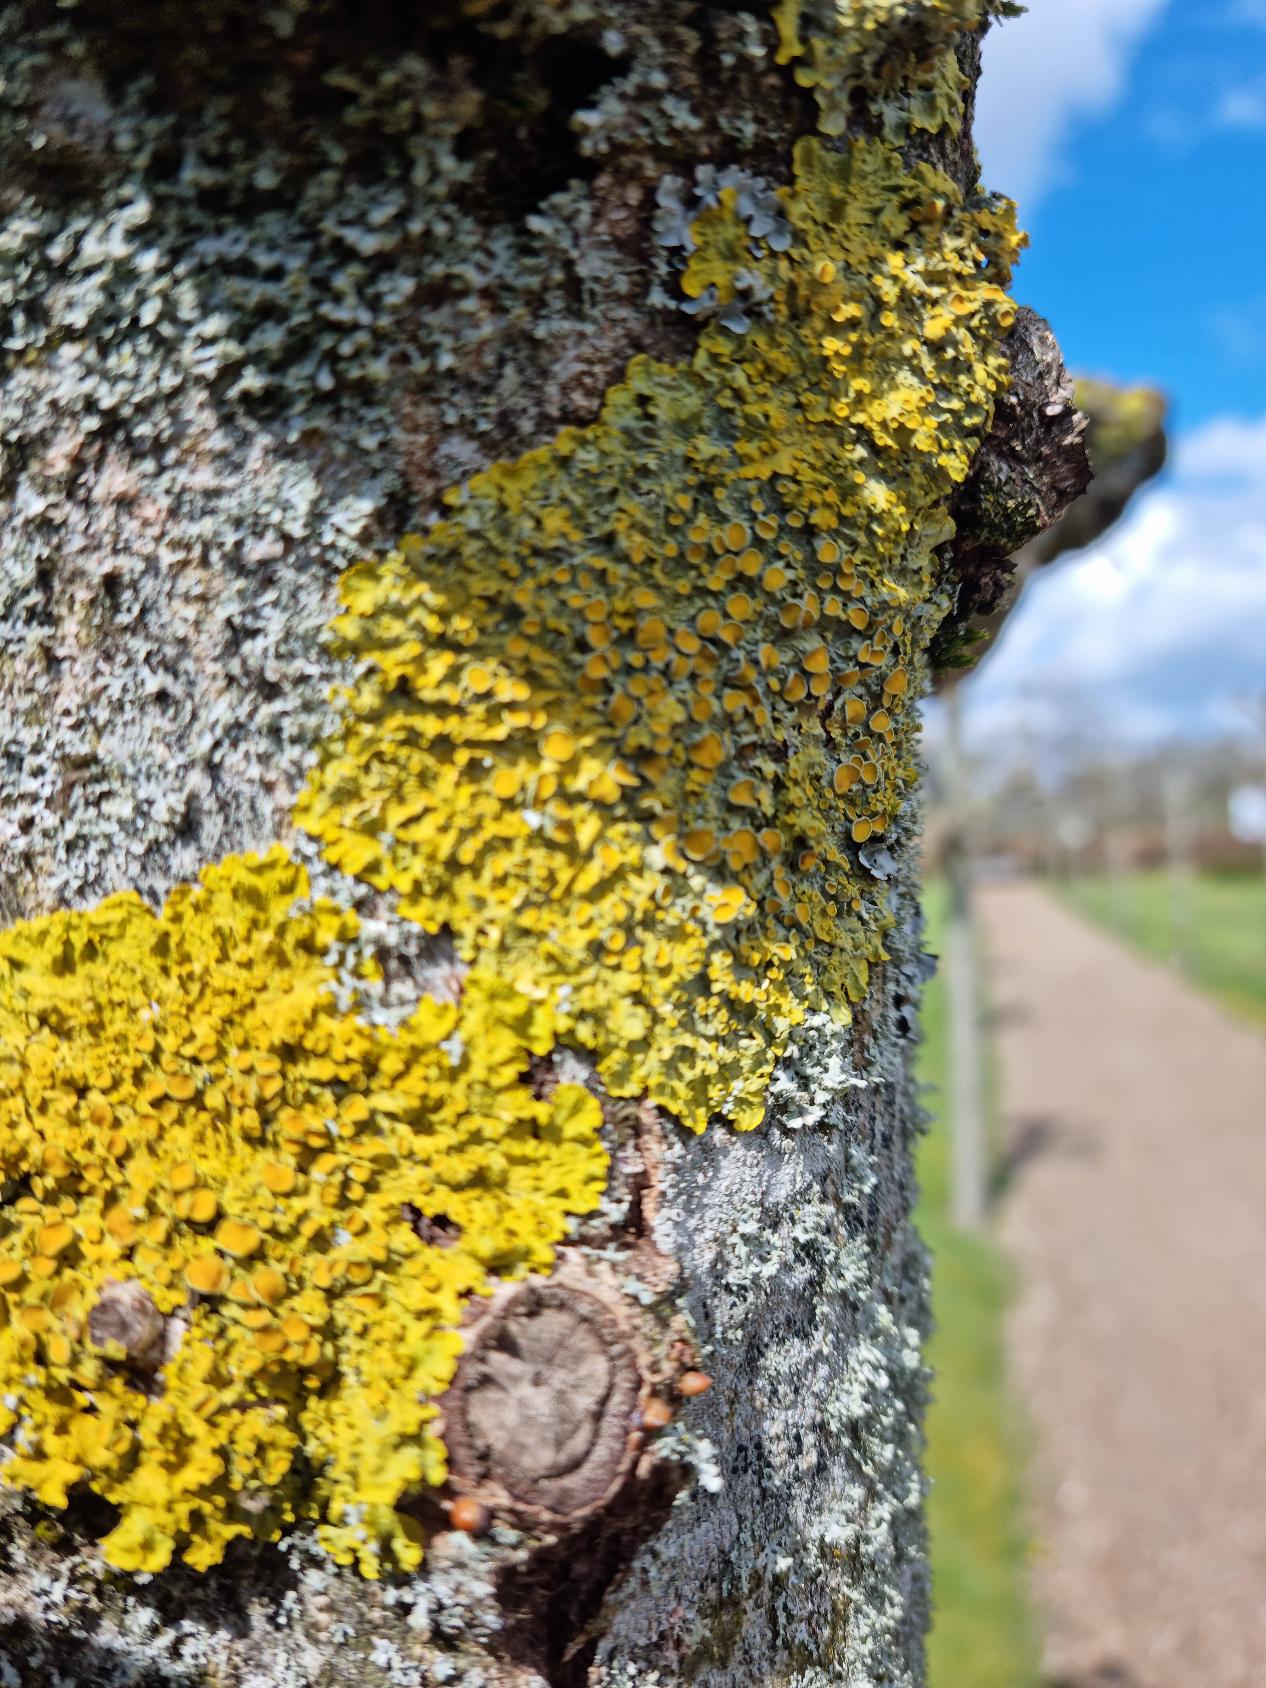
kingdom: Fungi
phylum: Ascomycota
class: Lecanoromycetes
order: Teloschistales
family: Teloschistaceae
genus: Xanthoria
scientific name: Xanthoria parietina
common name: Almindelig væggelav
